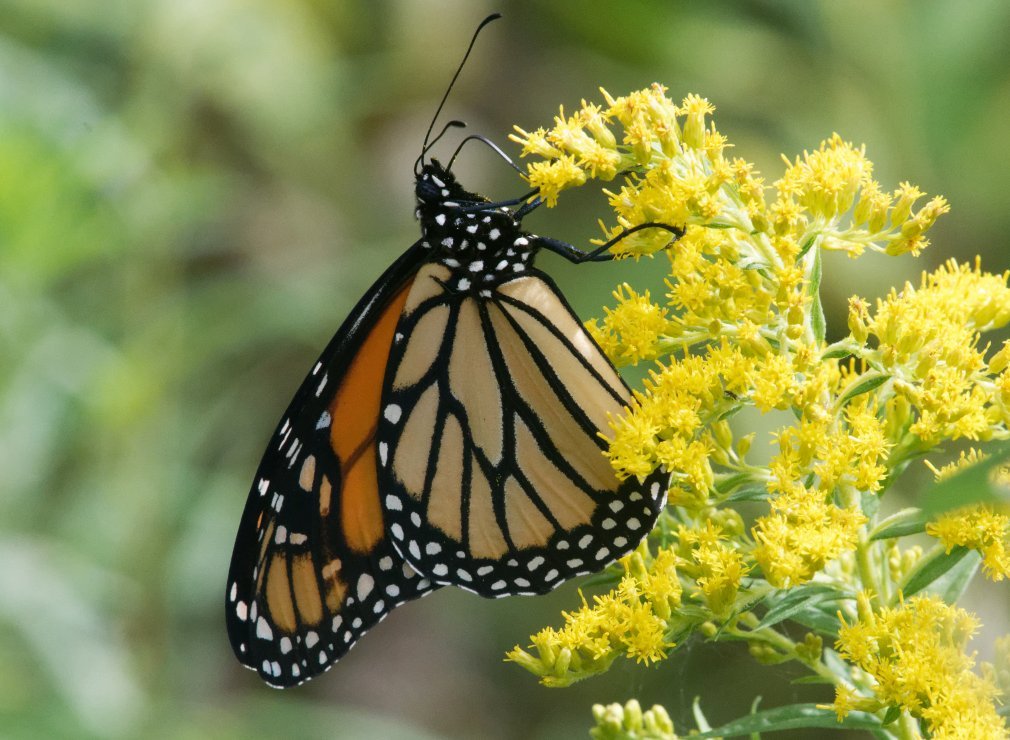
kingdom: Animalia
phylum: Arthropoda
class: Insecta
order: Lepidoptera
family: Nymphalidae
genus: Danaus
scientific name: Danaus plexippus
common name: Monarch
